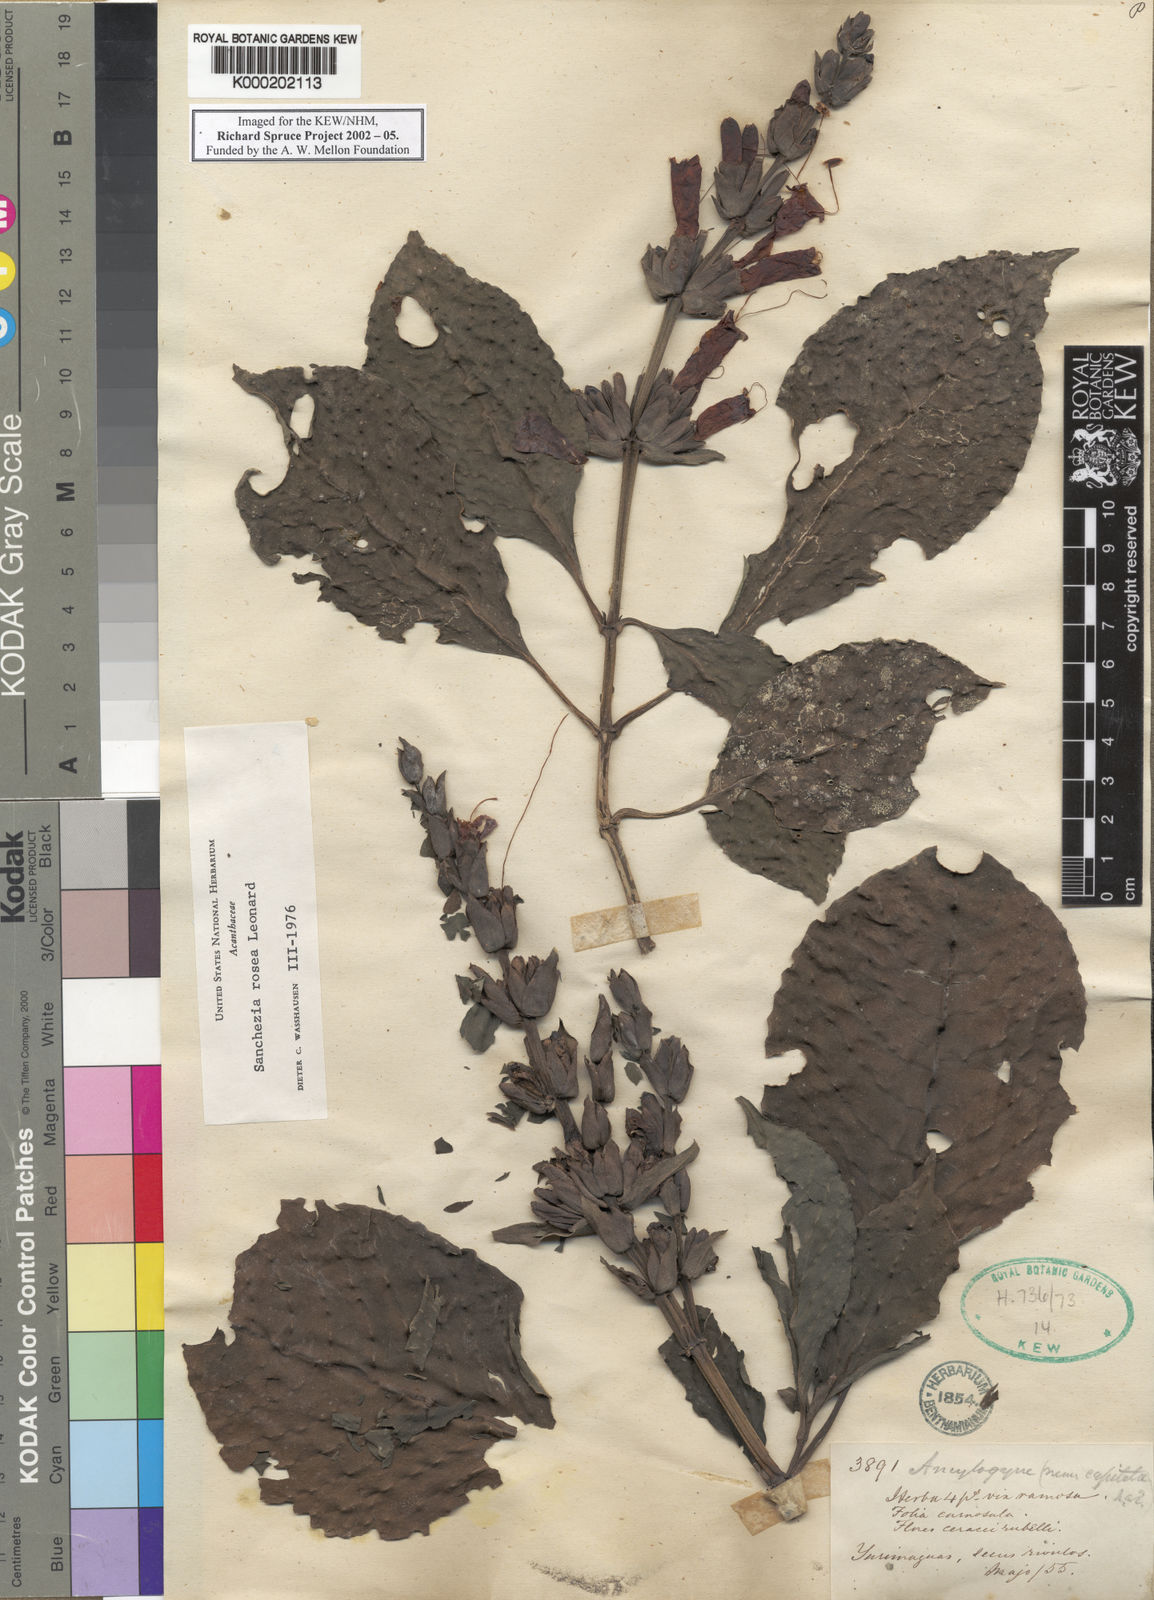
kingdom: Plantae
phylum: Tracheophyta
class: Magnoliopsida
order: Lamiales
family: Acanthaceae
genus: Sanchezia
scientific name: Sanchezia rosea
